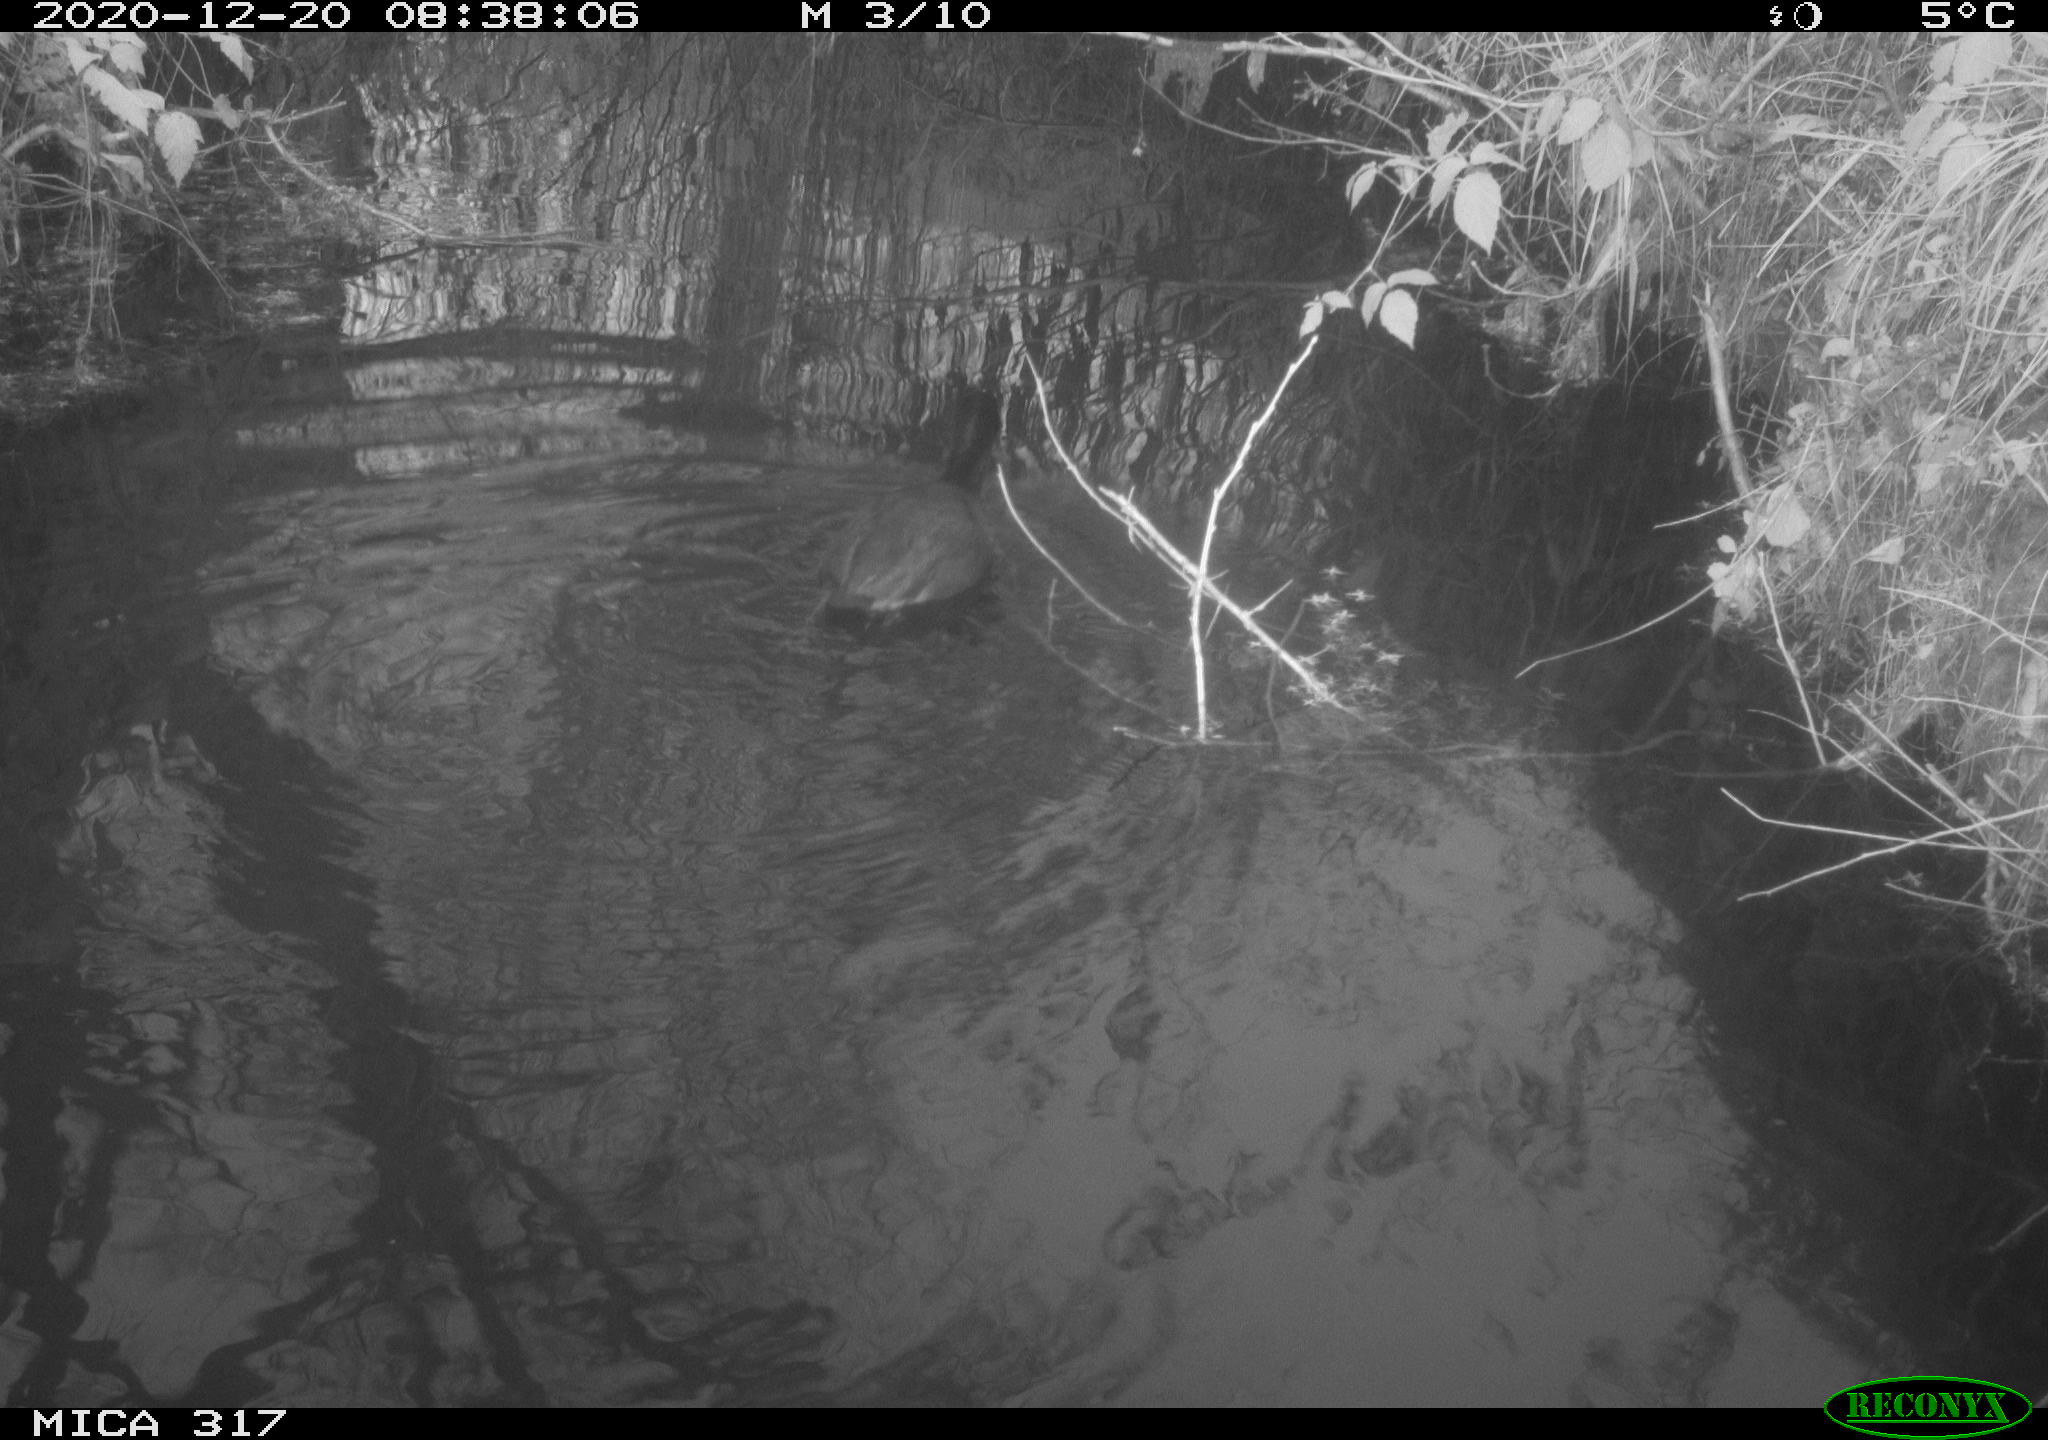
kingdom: Animalia
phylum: Chordata
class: Aves
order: Gruiformes
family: Rallidae
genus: Fulica
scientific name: Fulica atra
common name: Eurasian coot
